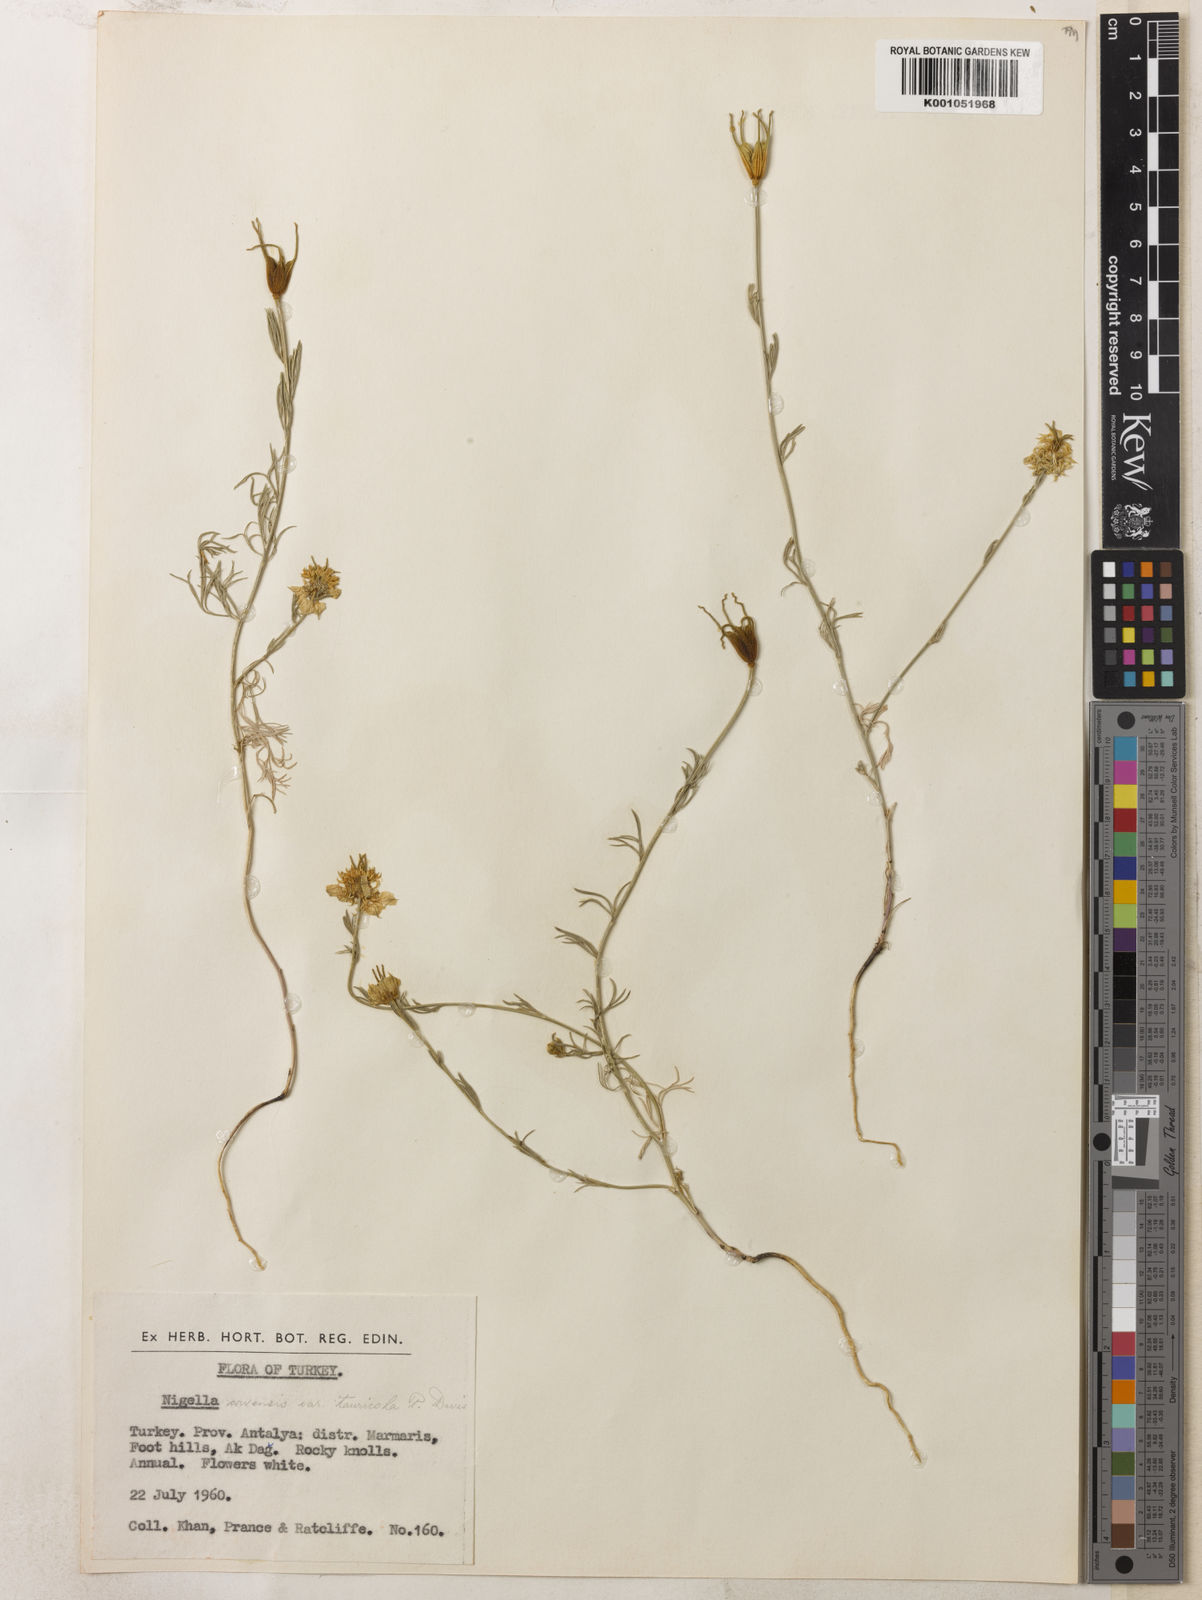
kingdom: Plantae
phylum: Tracheophyta
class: Magnoliopsida
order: Ranunculales
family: Ranunculaceae
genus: Nigella
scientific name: Nigella arvensis
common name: Wild fennel-flower
